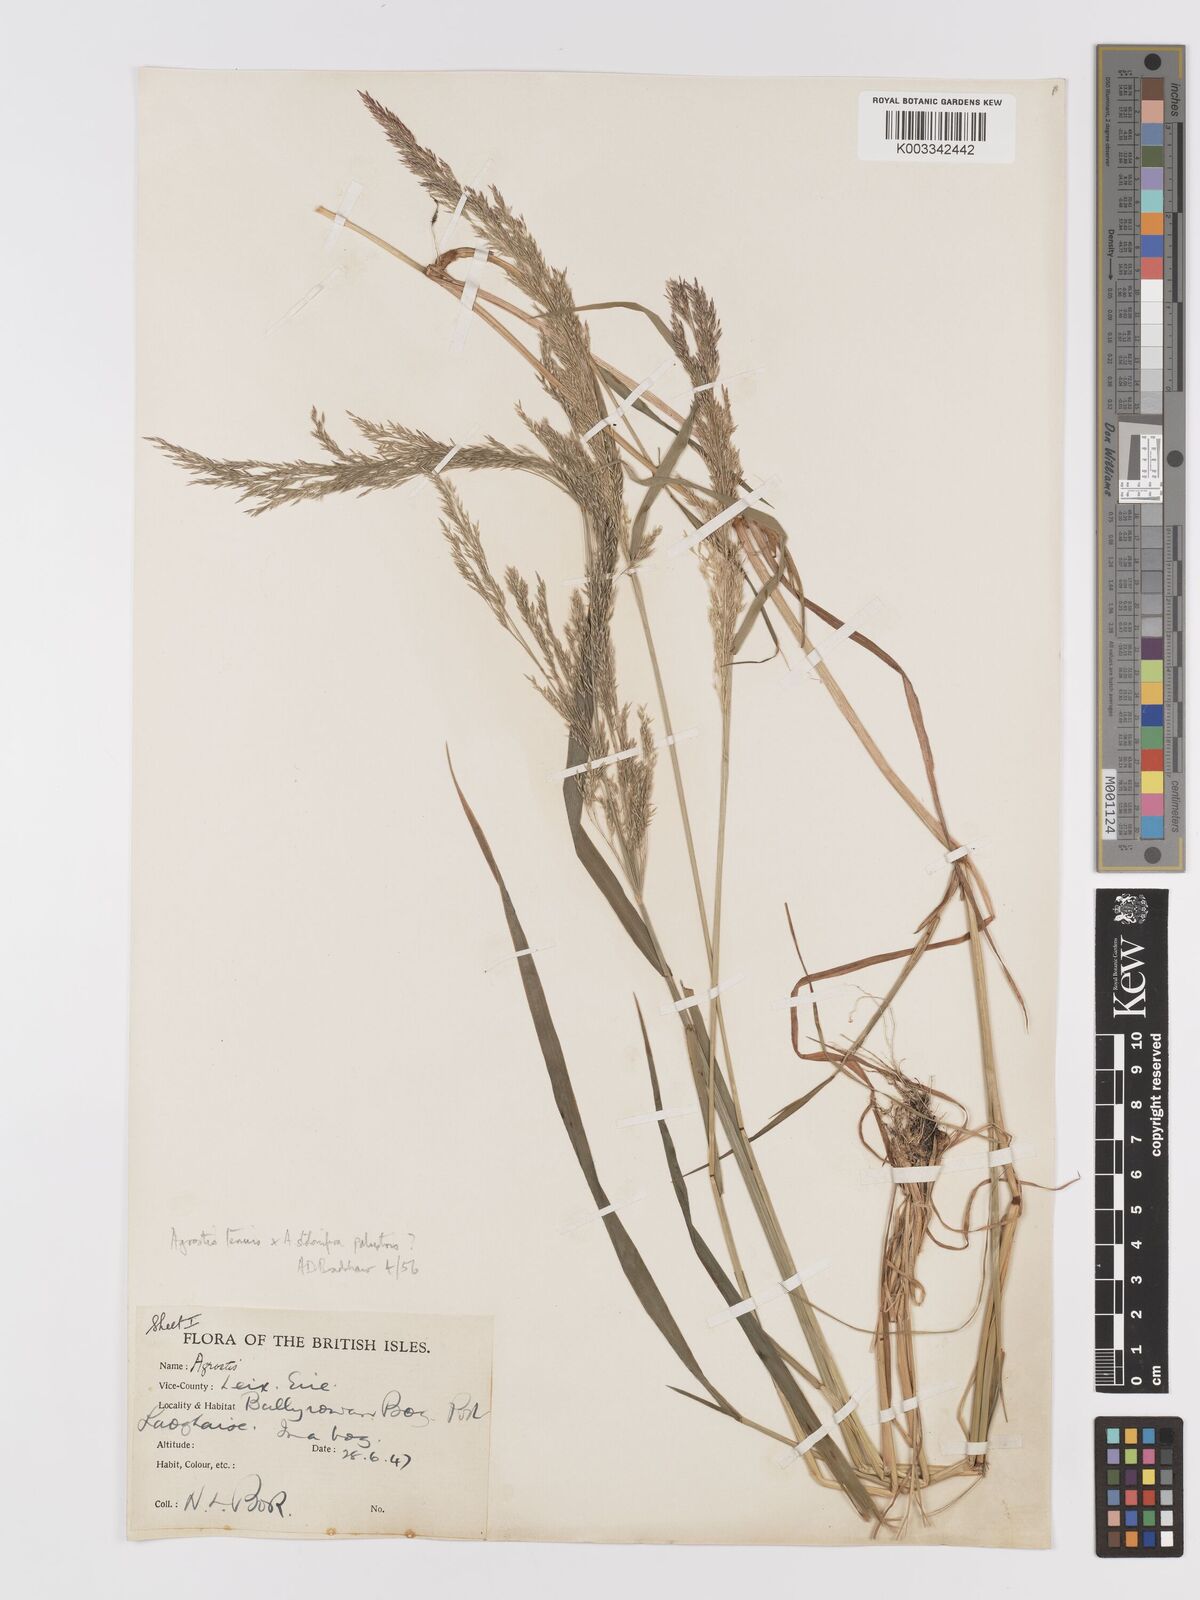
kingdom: Plantae
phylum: Tracheophyta
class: Liliopsida
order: Poales
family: Poaceae
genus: Agrostis
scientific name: Agrostis capillaris
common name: Colonial bentgrass
